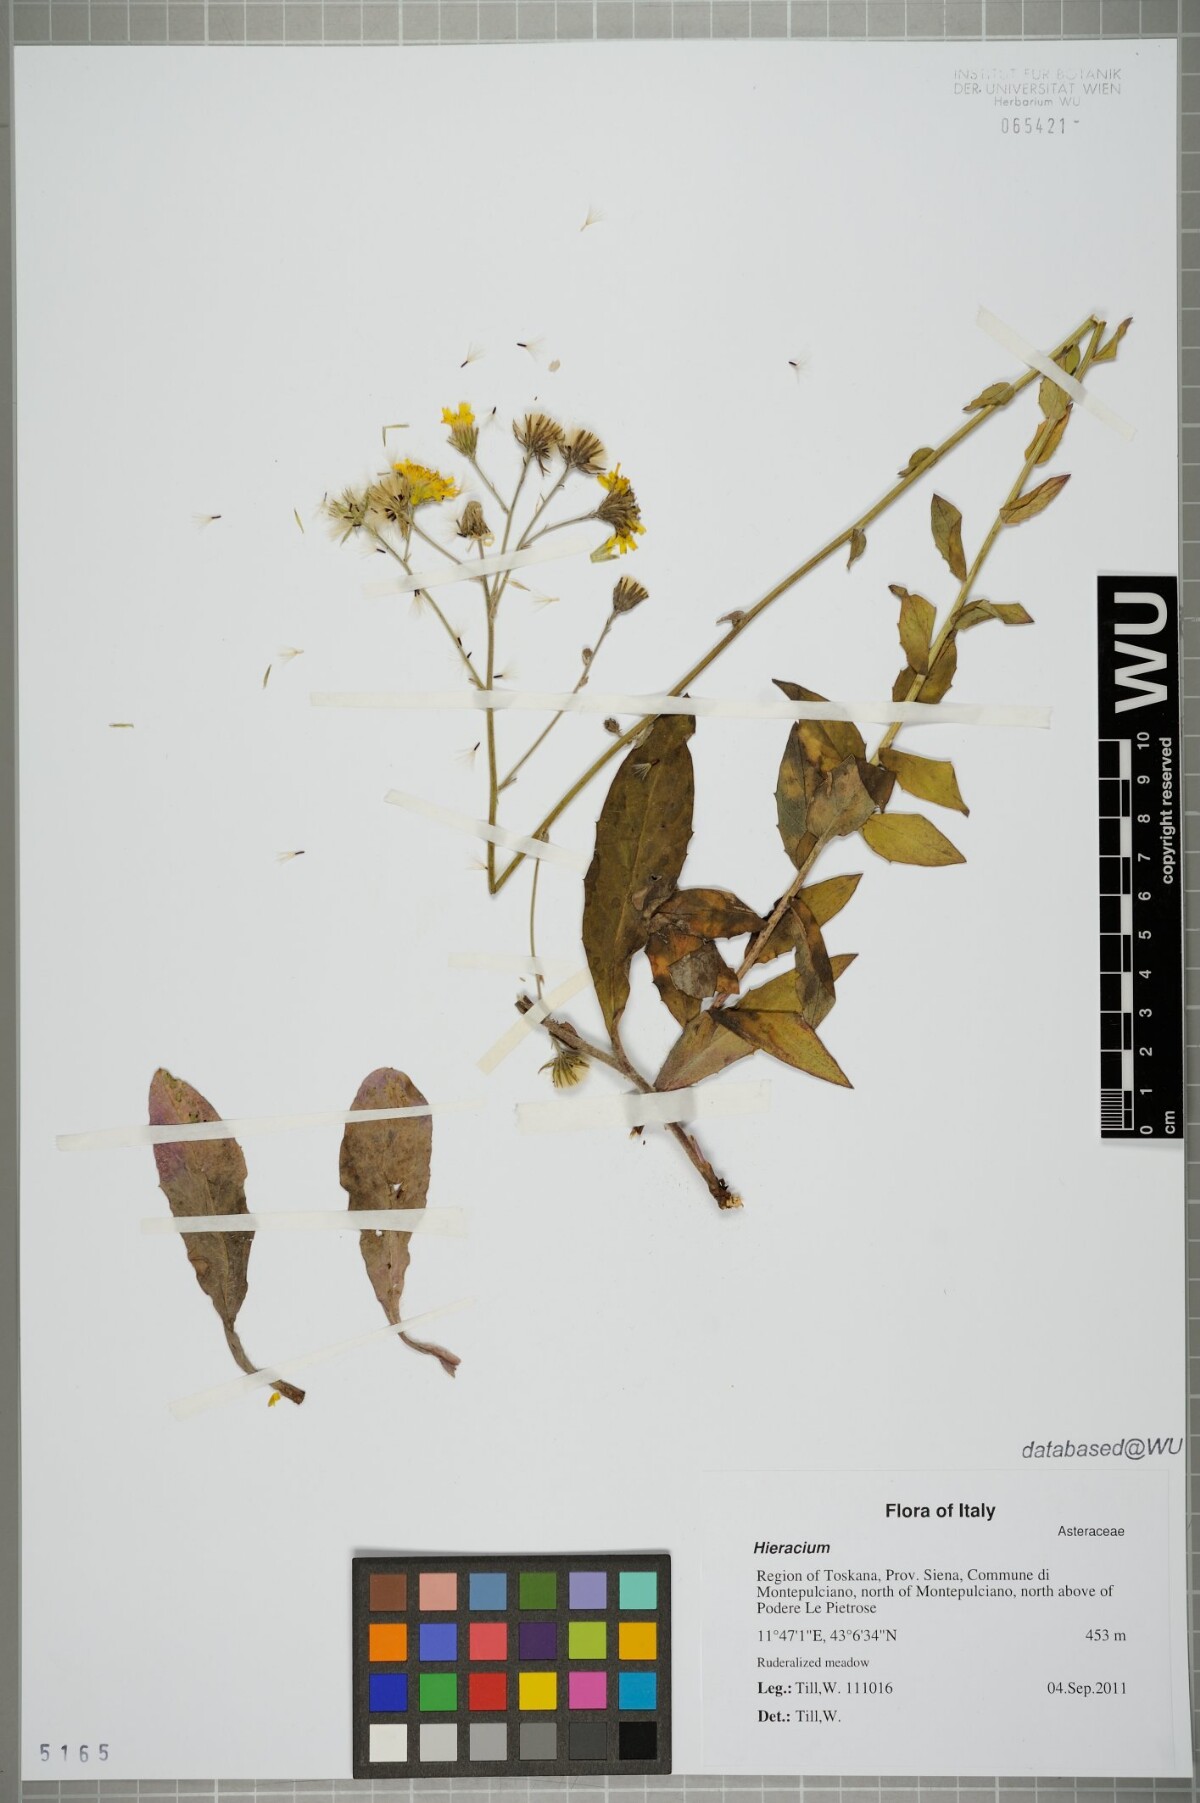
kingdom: Plantae
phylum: Tracheophyta
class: Magnoliopsida
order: Asterales
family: Asteraceae
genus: Hieracium
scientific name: Hieracium
